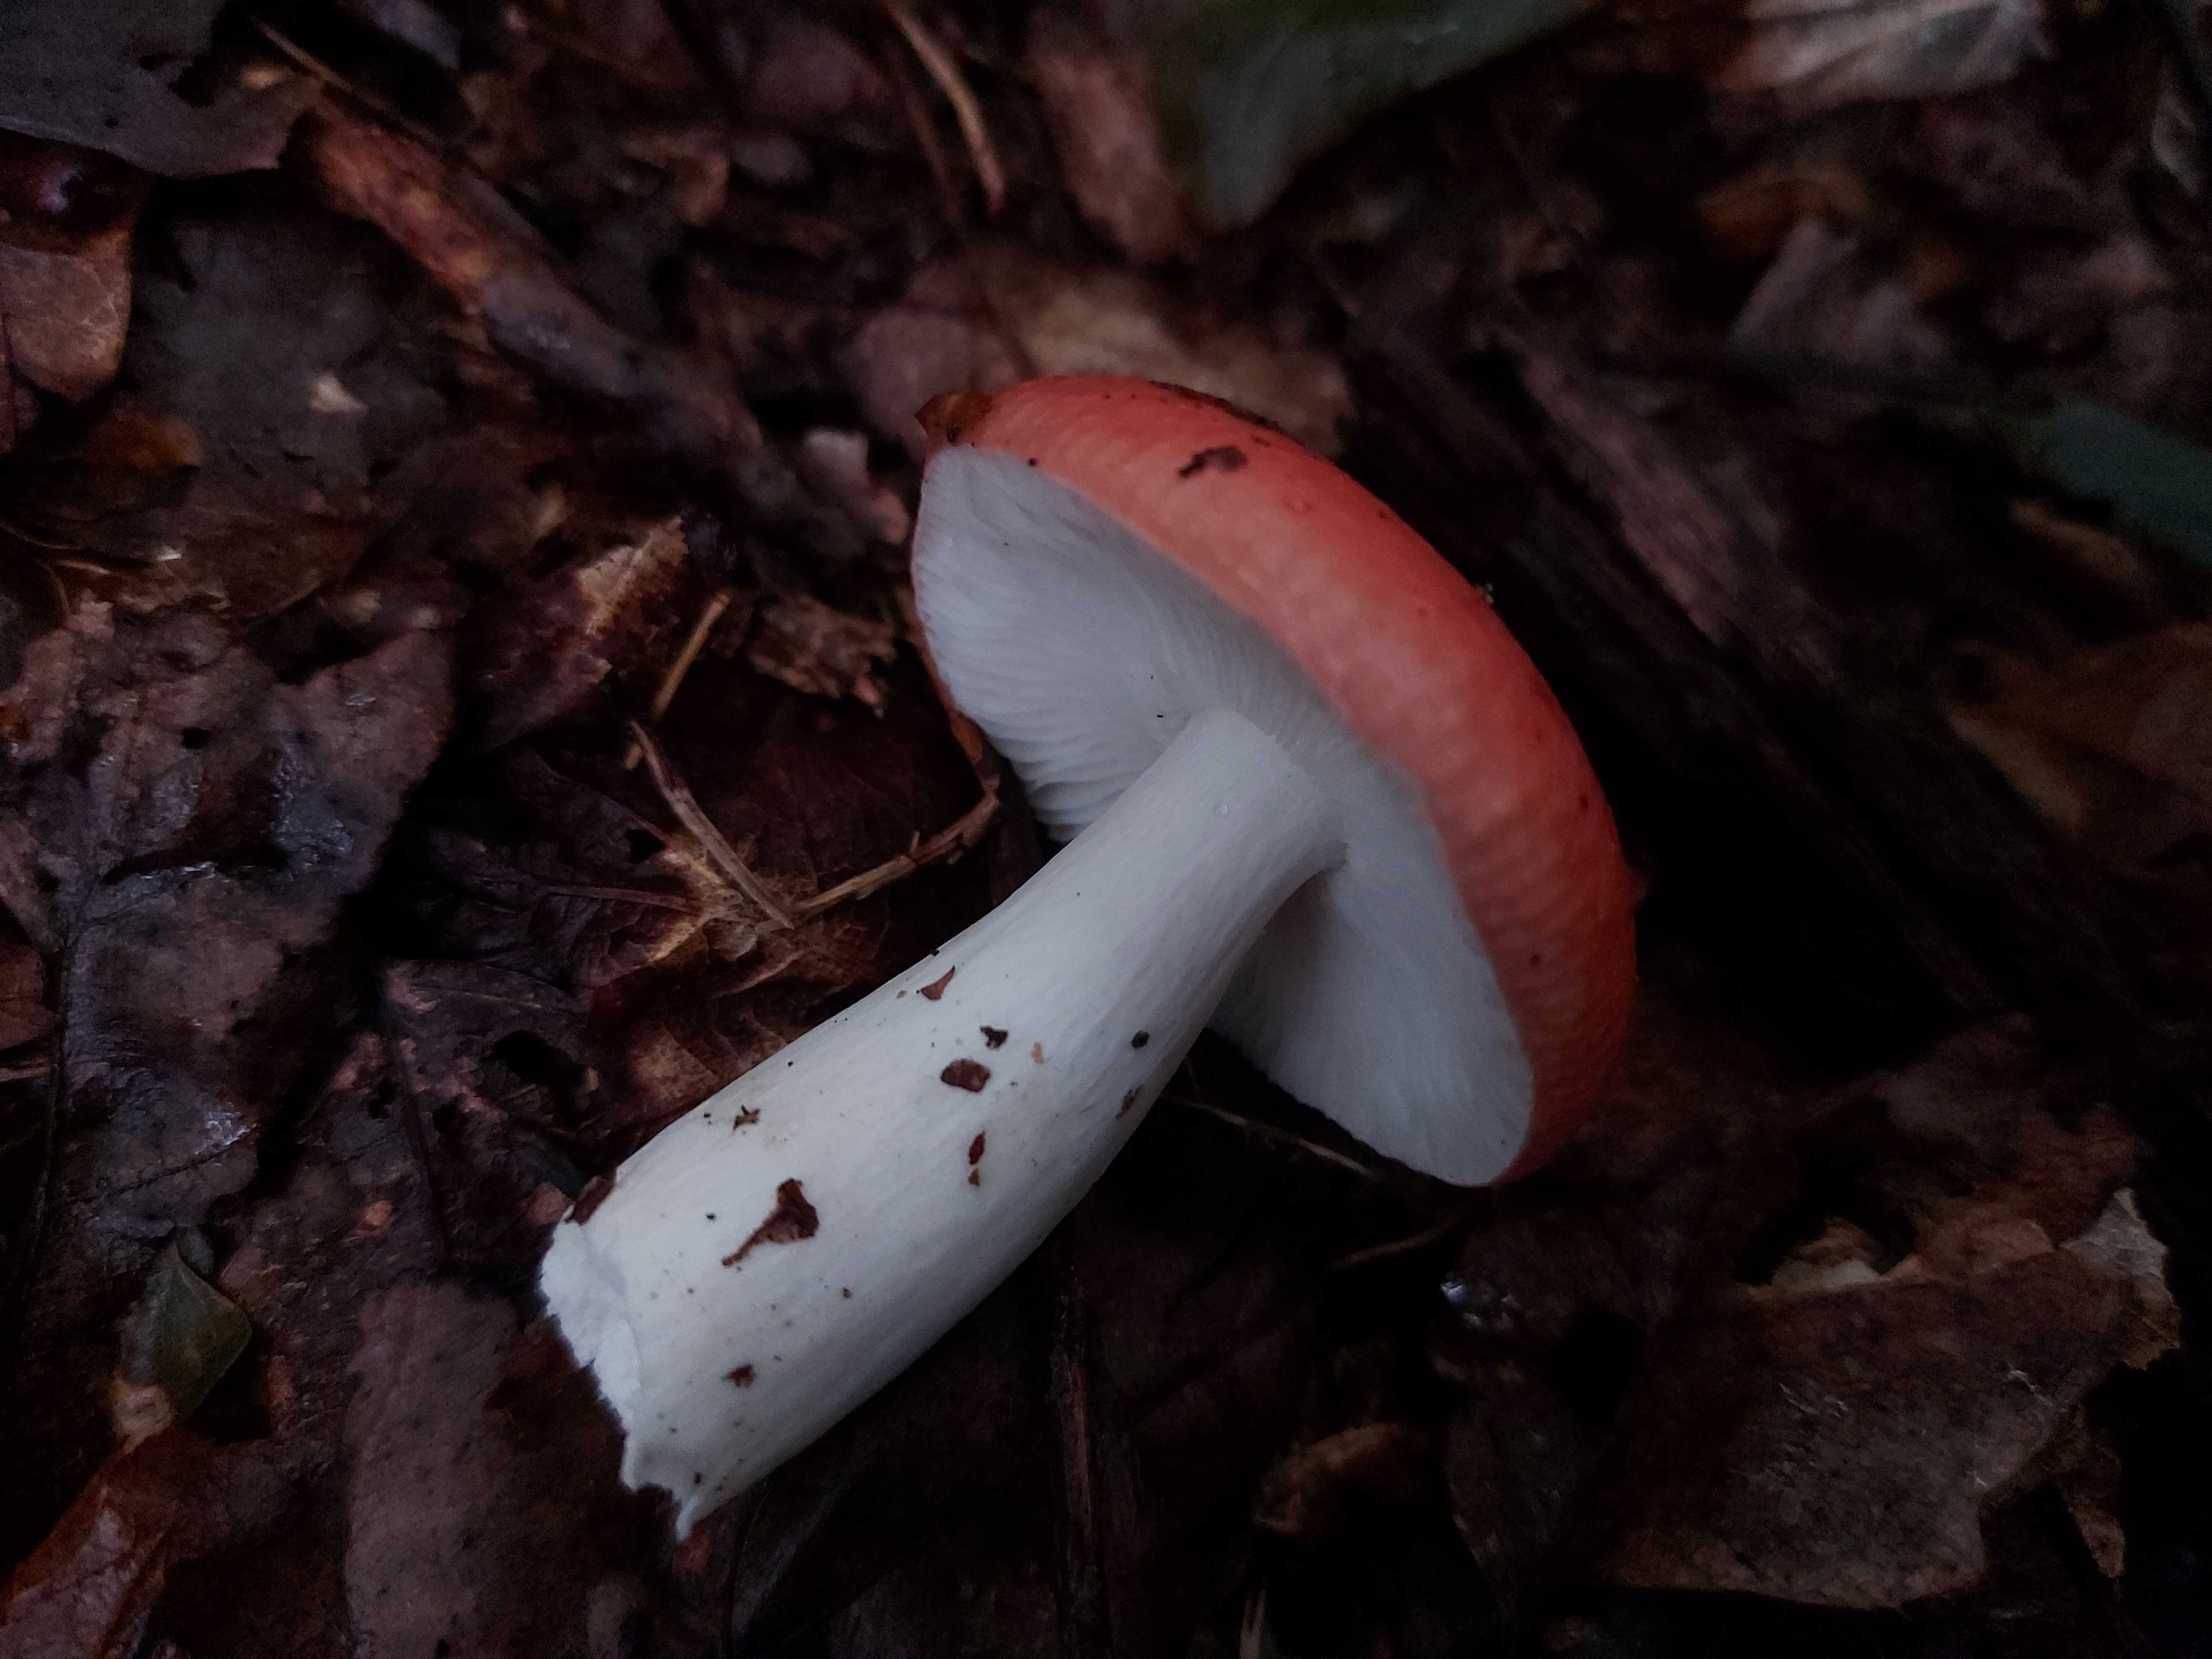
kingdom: Fungi
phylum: Basidiomycota
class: Agaricomycetes
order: Russulales
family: Russulaceae
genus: Russula
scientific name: Russula
